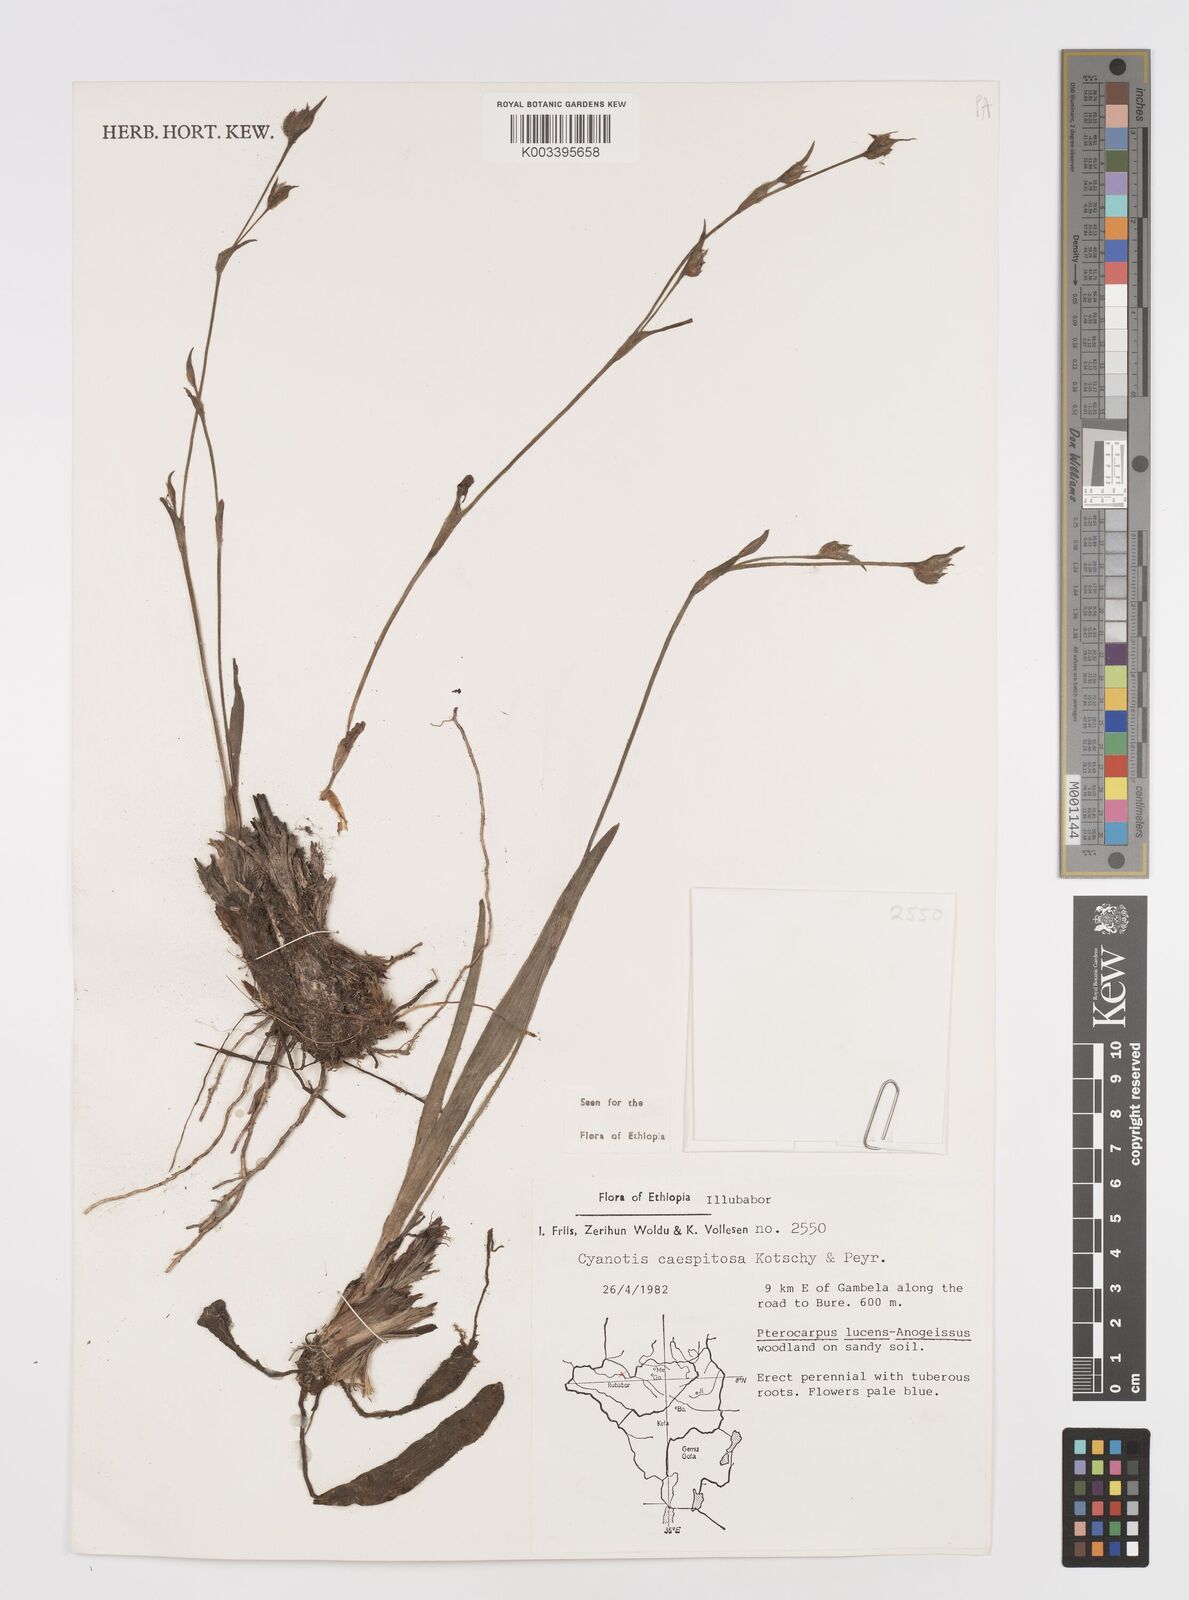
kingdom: Plantae
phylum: Tracheophyta
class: Liliopsida
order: Commelinales
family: Commelinaceae
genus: Cyanotis
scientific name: Cyanotis caespitosa
